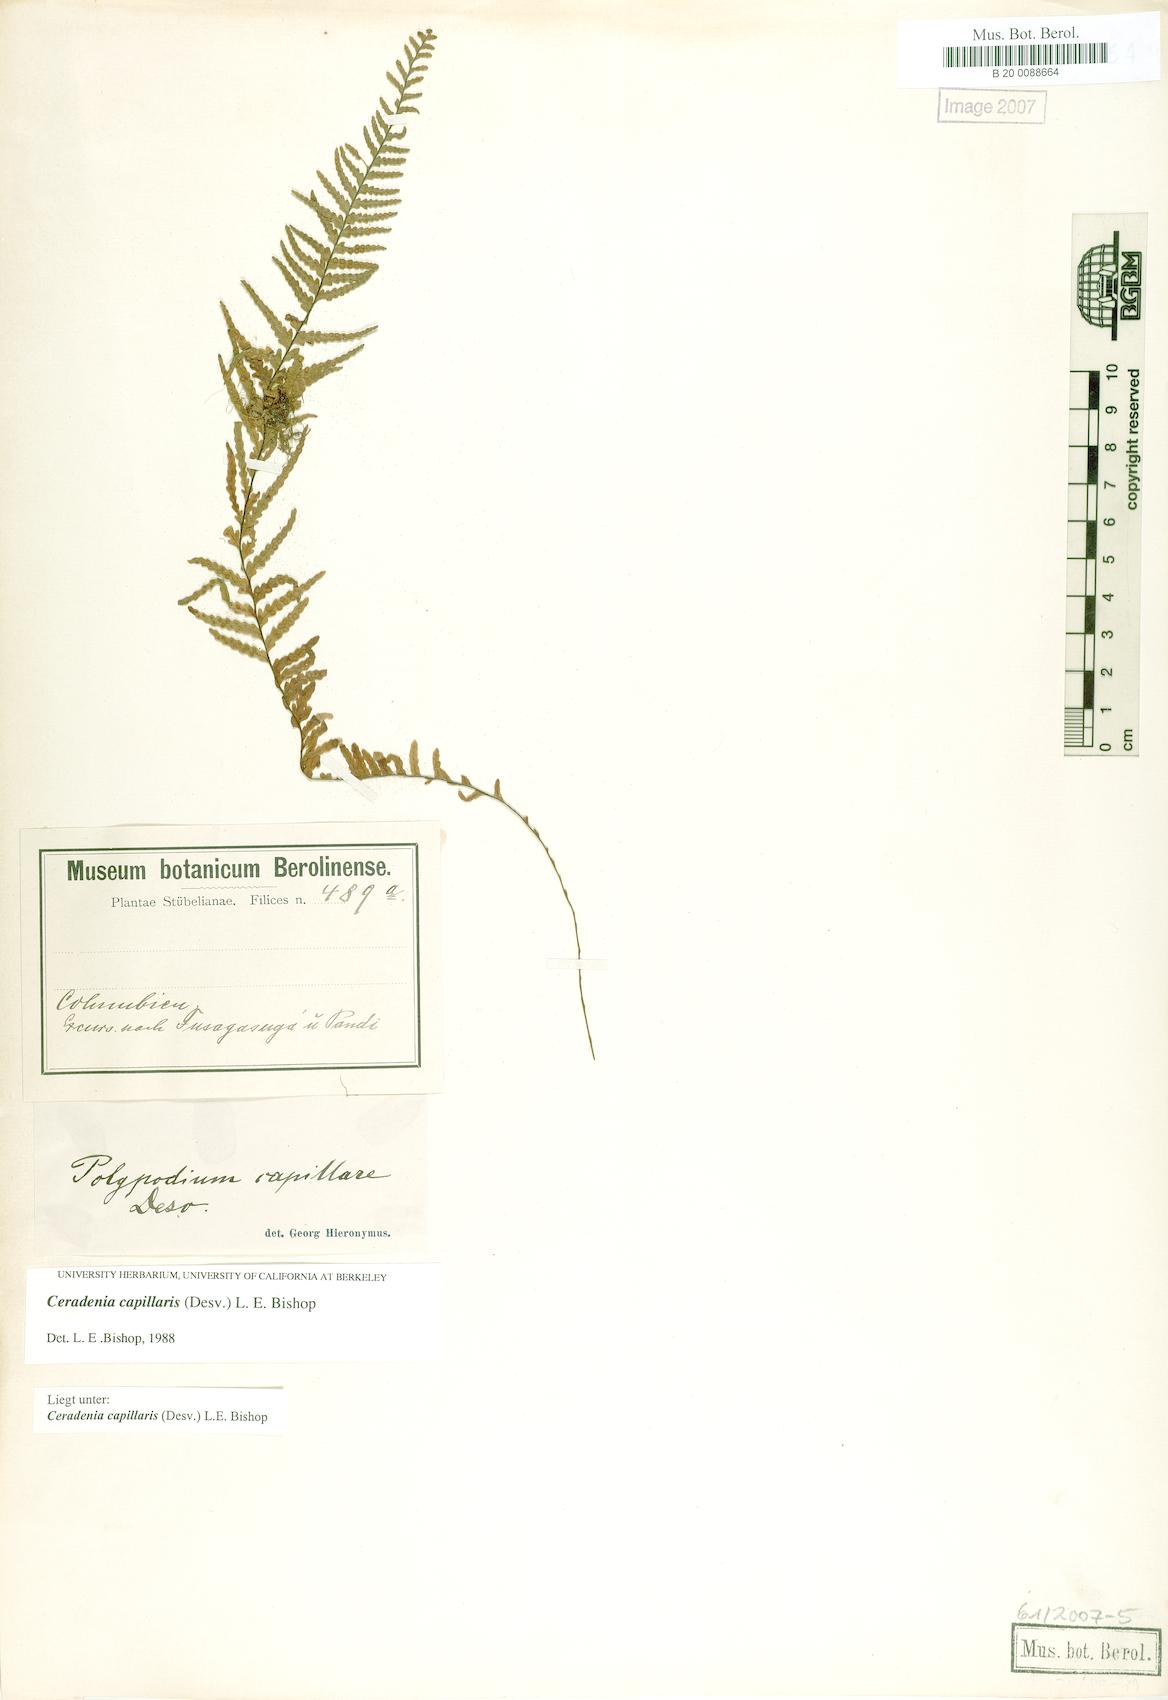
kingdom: Plantae
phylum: Tracheophyta
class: Polypodiopsida
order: Polypodiales
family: Polypodiaceae
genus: Ceradenia
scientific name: Ceradenia capillaris
